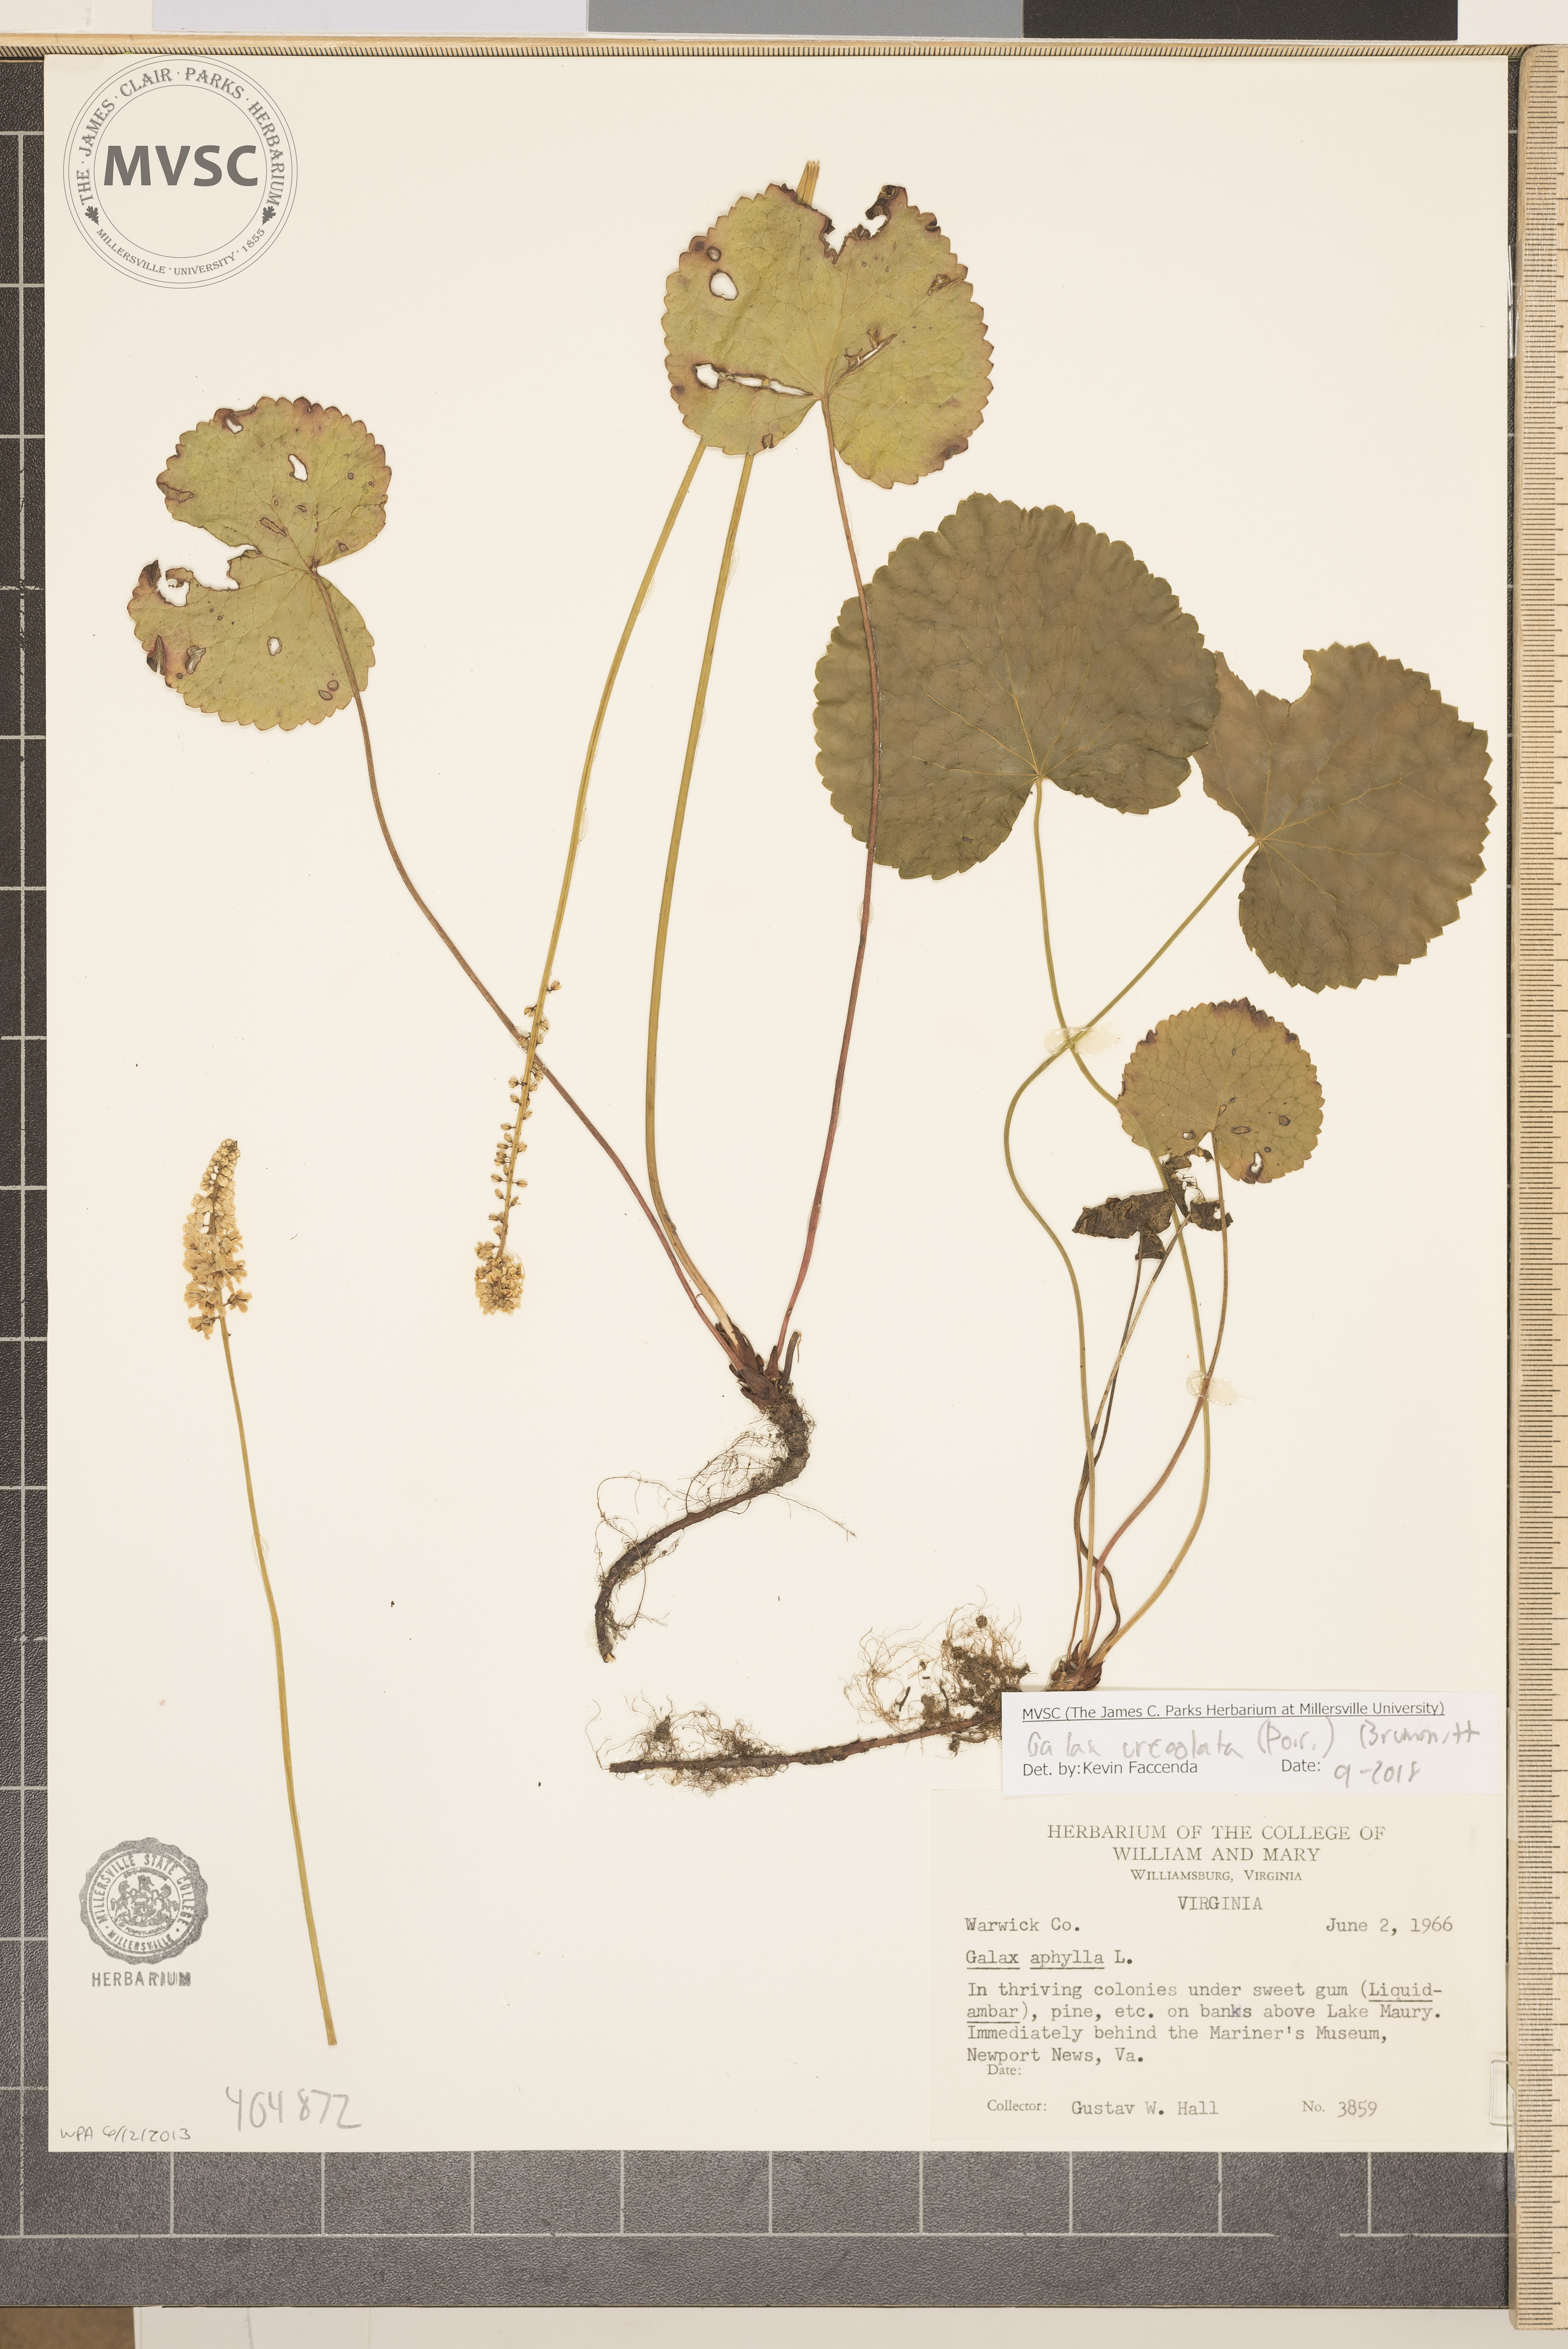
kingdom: Plantae
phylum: Tracheophyta
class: Magnoliopsida
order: Ericales
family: Diapensiaceae
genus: Galax
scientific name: Galax urceolata
